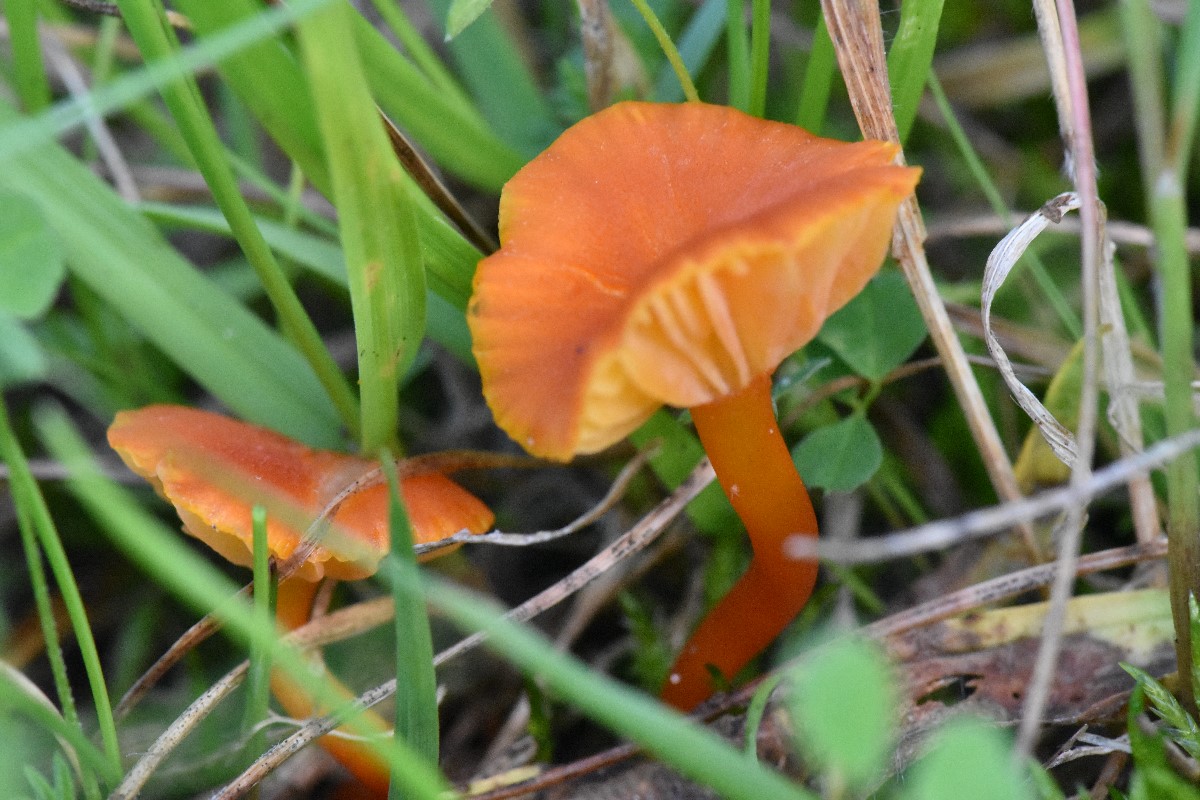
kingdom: Fungi
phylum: Basidiomycota
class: Agaricomycetes
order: Agaricales
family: Hygrophoraceae
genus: Hygrocybe
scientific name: Hygrocybe calciphila
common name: kalk-vokshat
